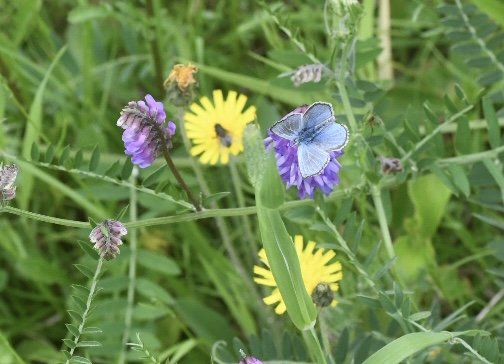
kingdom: Animalia
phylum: Arthropoda
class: Insecta
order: Lepidoptera
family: Lycaenidae
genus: Plebejus
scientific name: Plebejus saepiolus
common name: Greenish Blue
